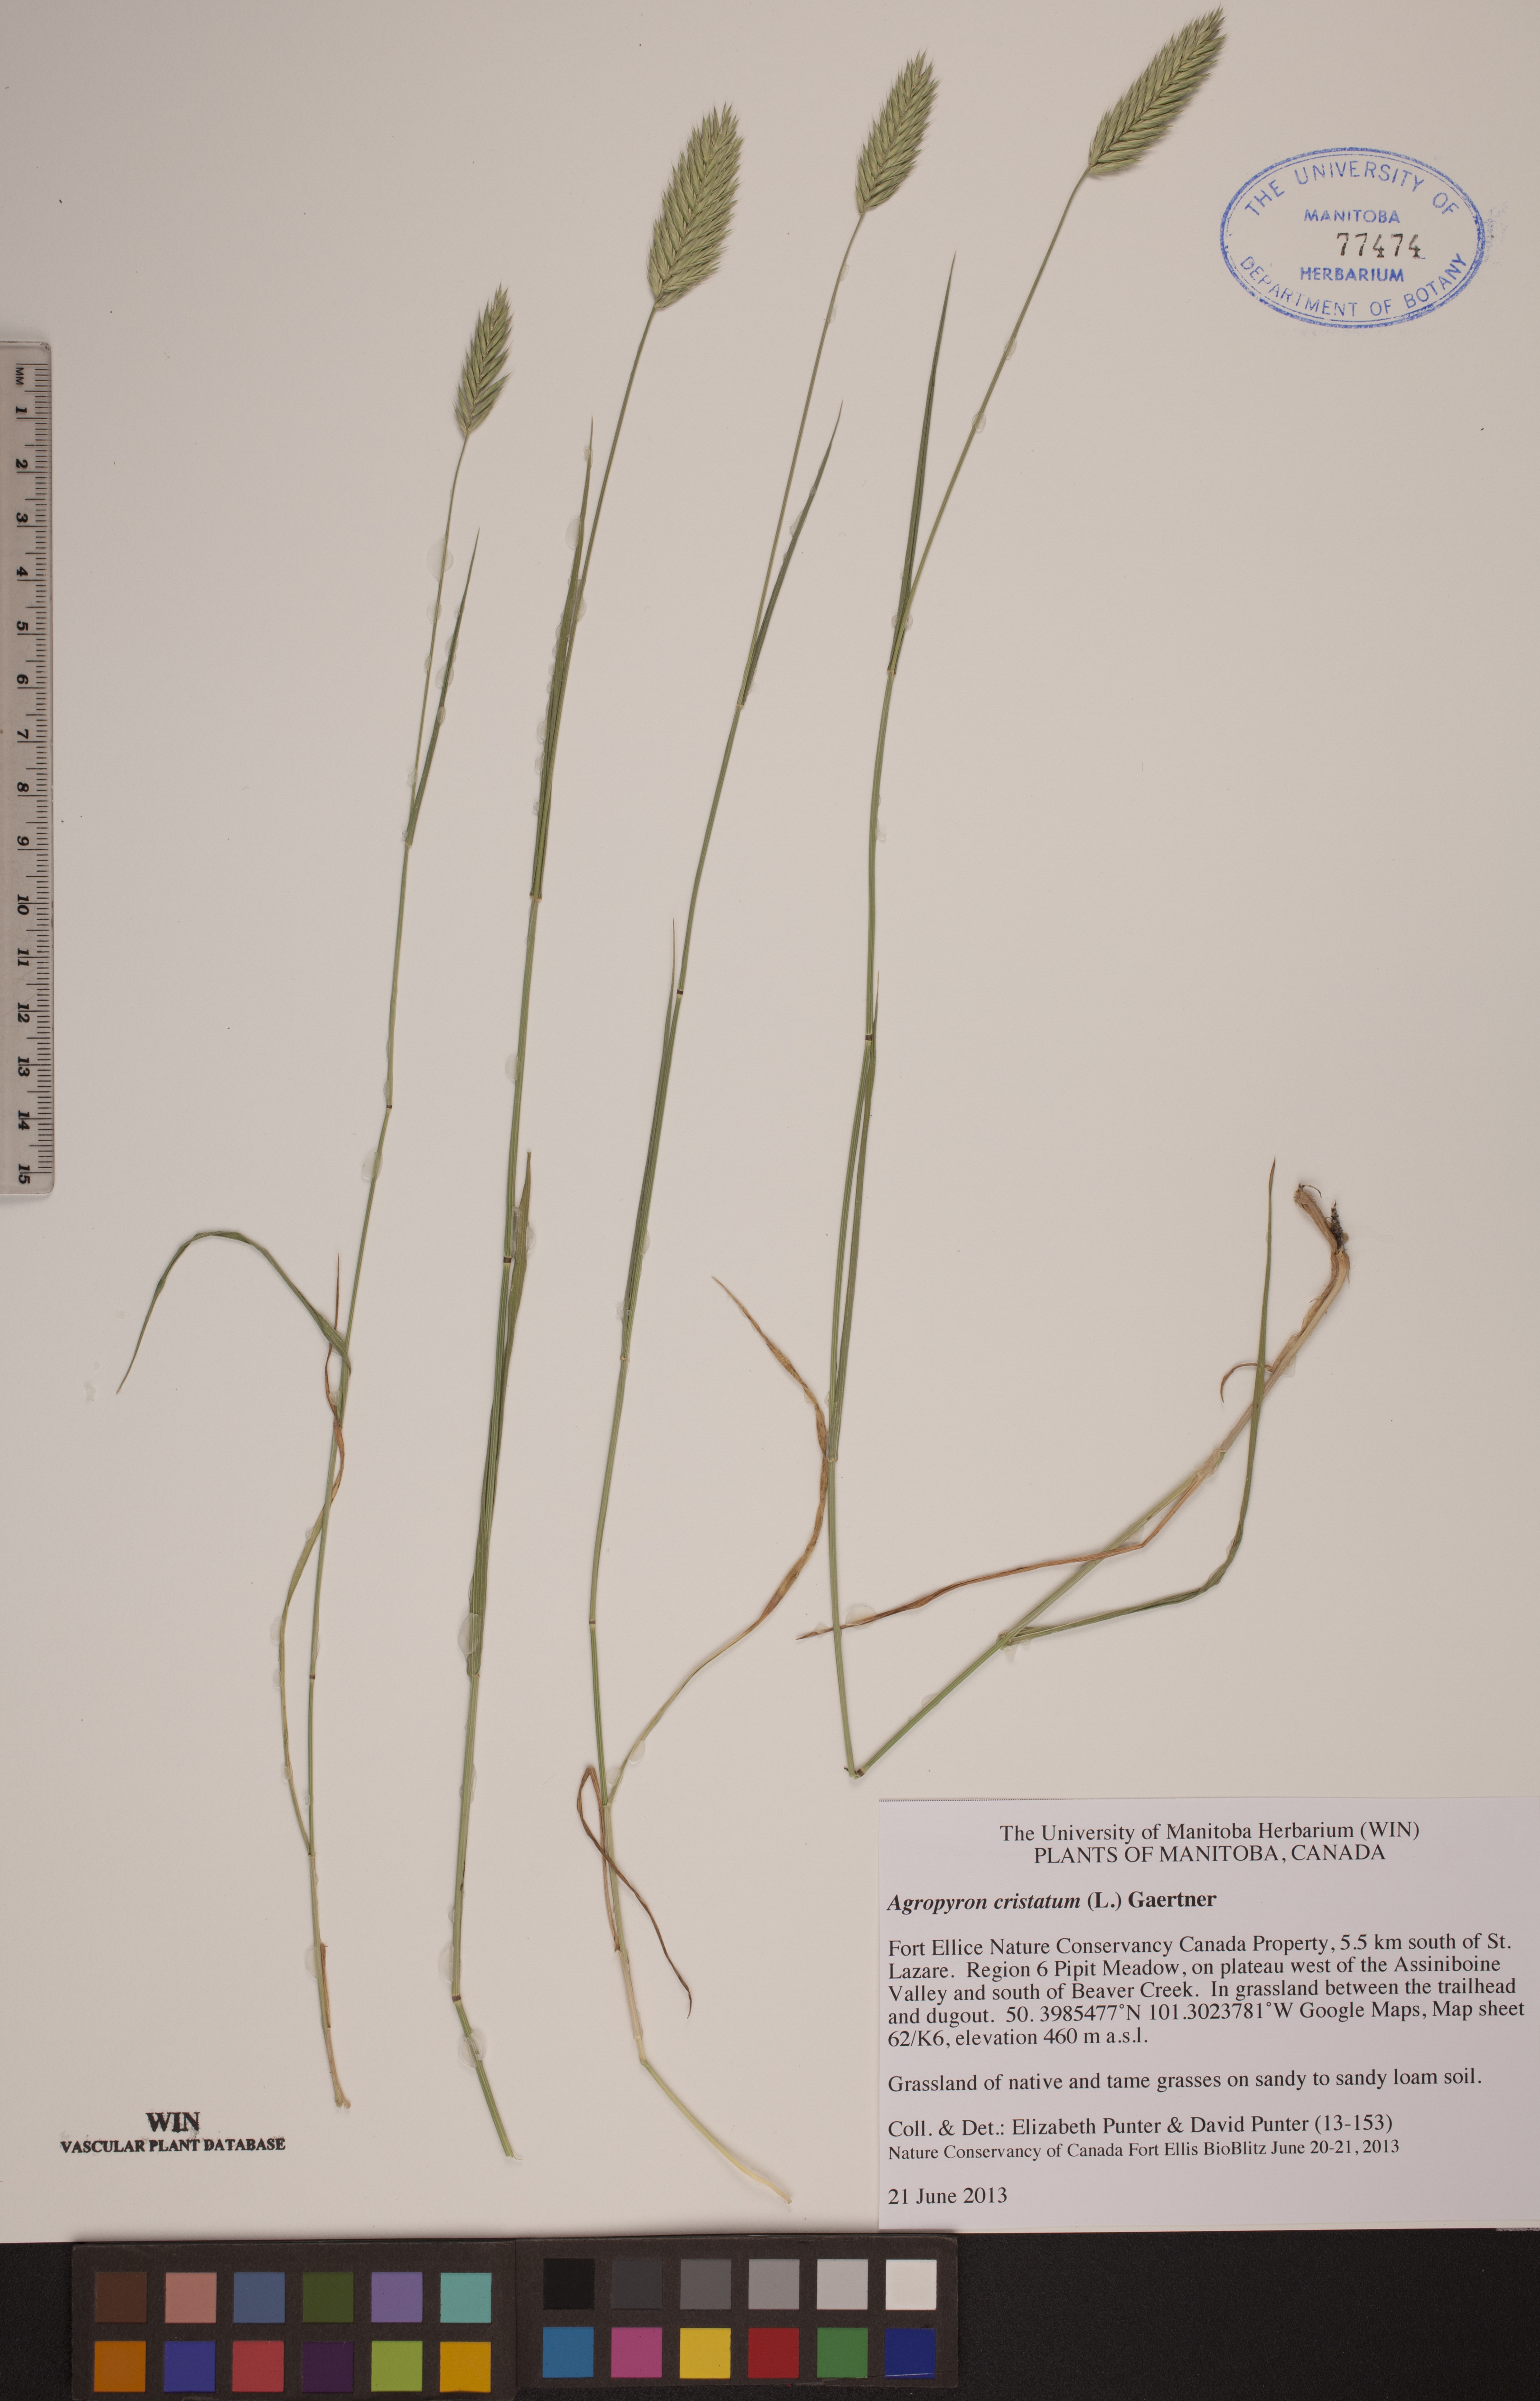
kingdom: Plantae
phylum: Tracheophyta
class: Liliopsida
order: Poales
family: Poaceae
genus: Agropyron
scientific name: Agropyron cristatum
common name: Crested wheatgrass
